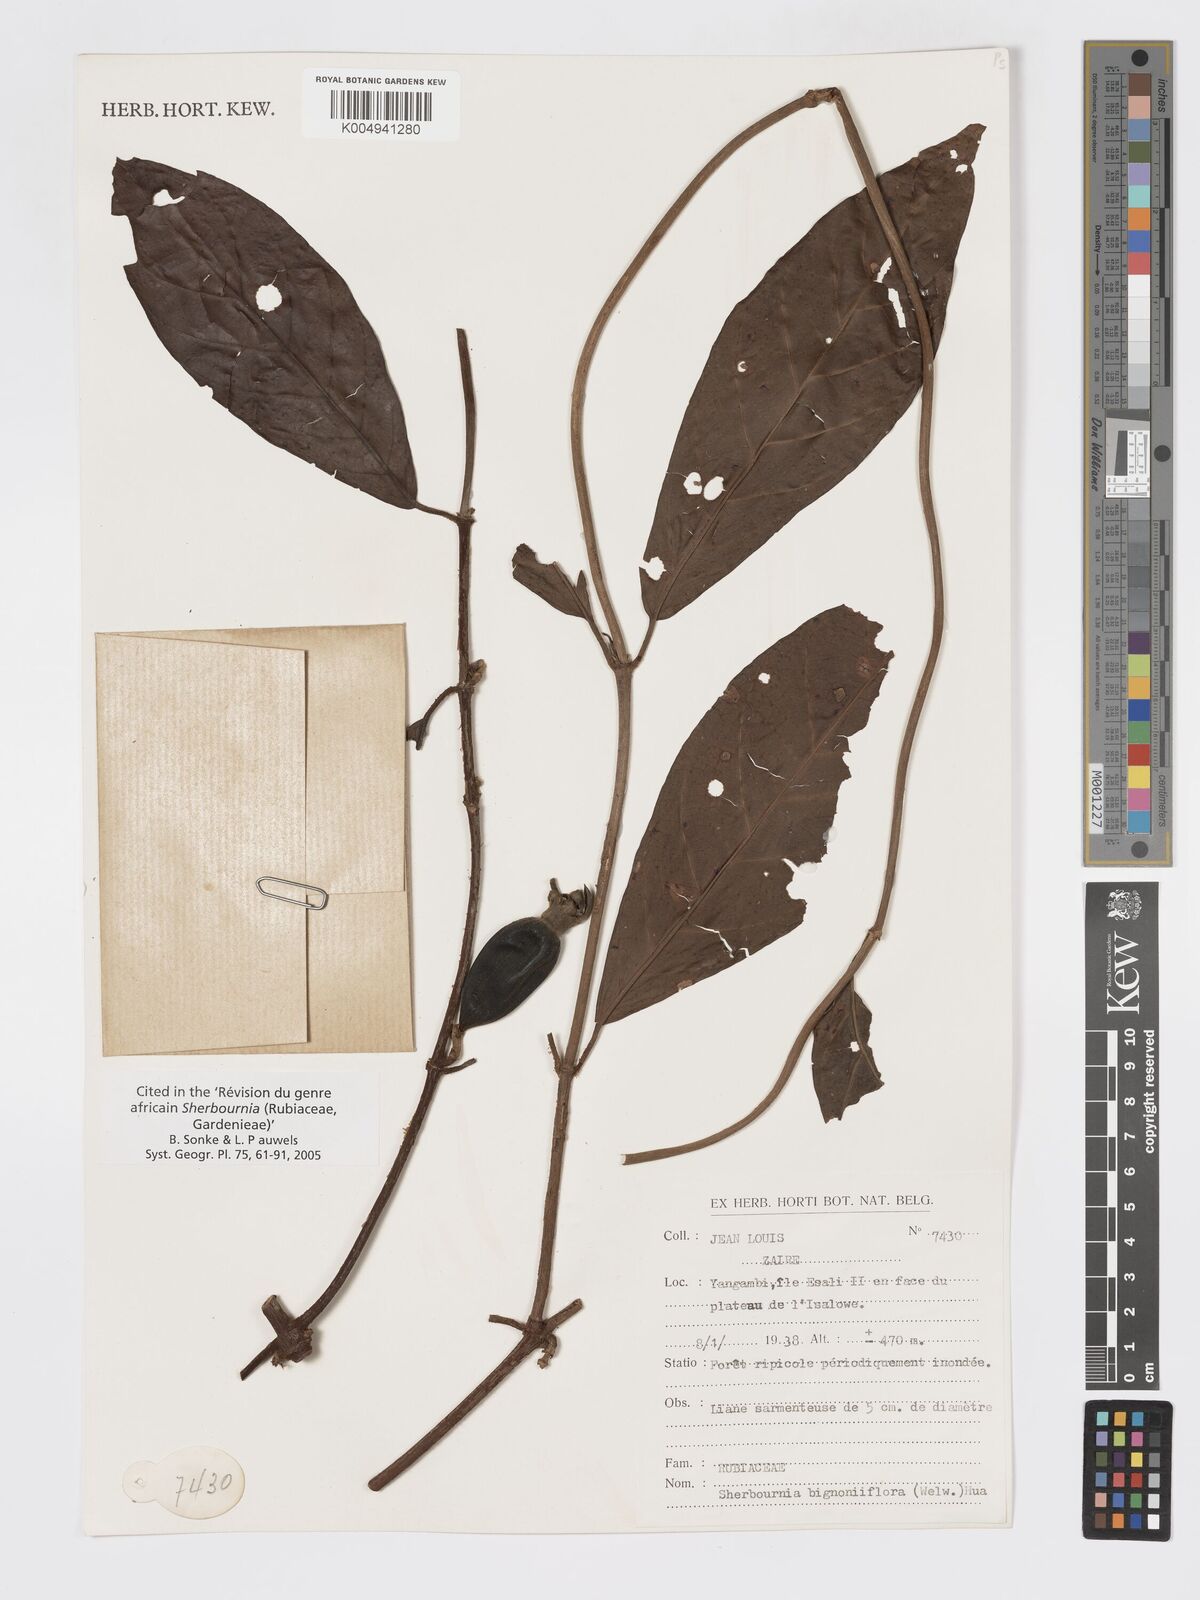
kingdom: Plantae
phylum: Tracheophyta
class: Magnoliopsida
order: Gentianales
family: Rubiaceae
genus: Sherbournia
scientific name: Sherbournia bignoniiflora
